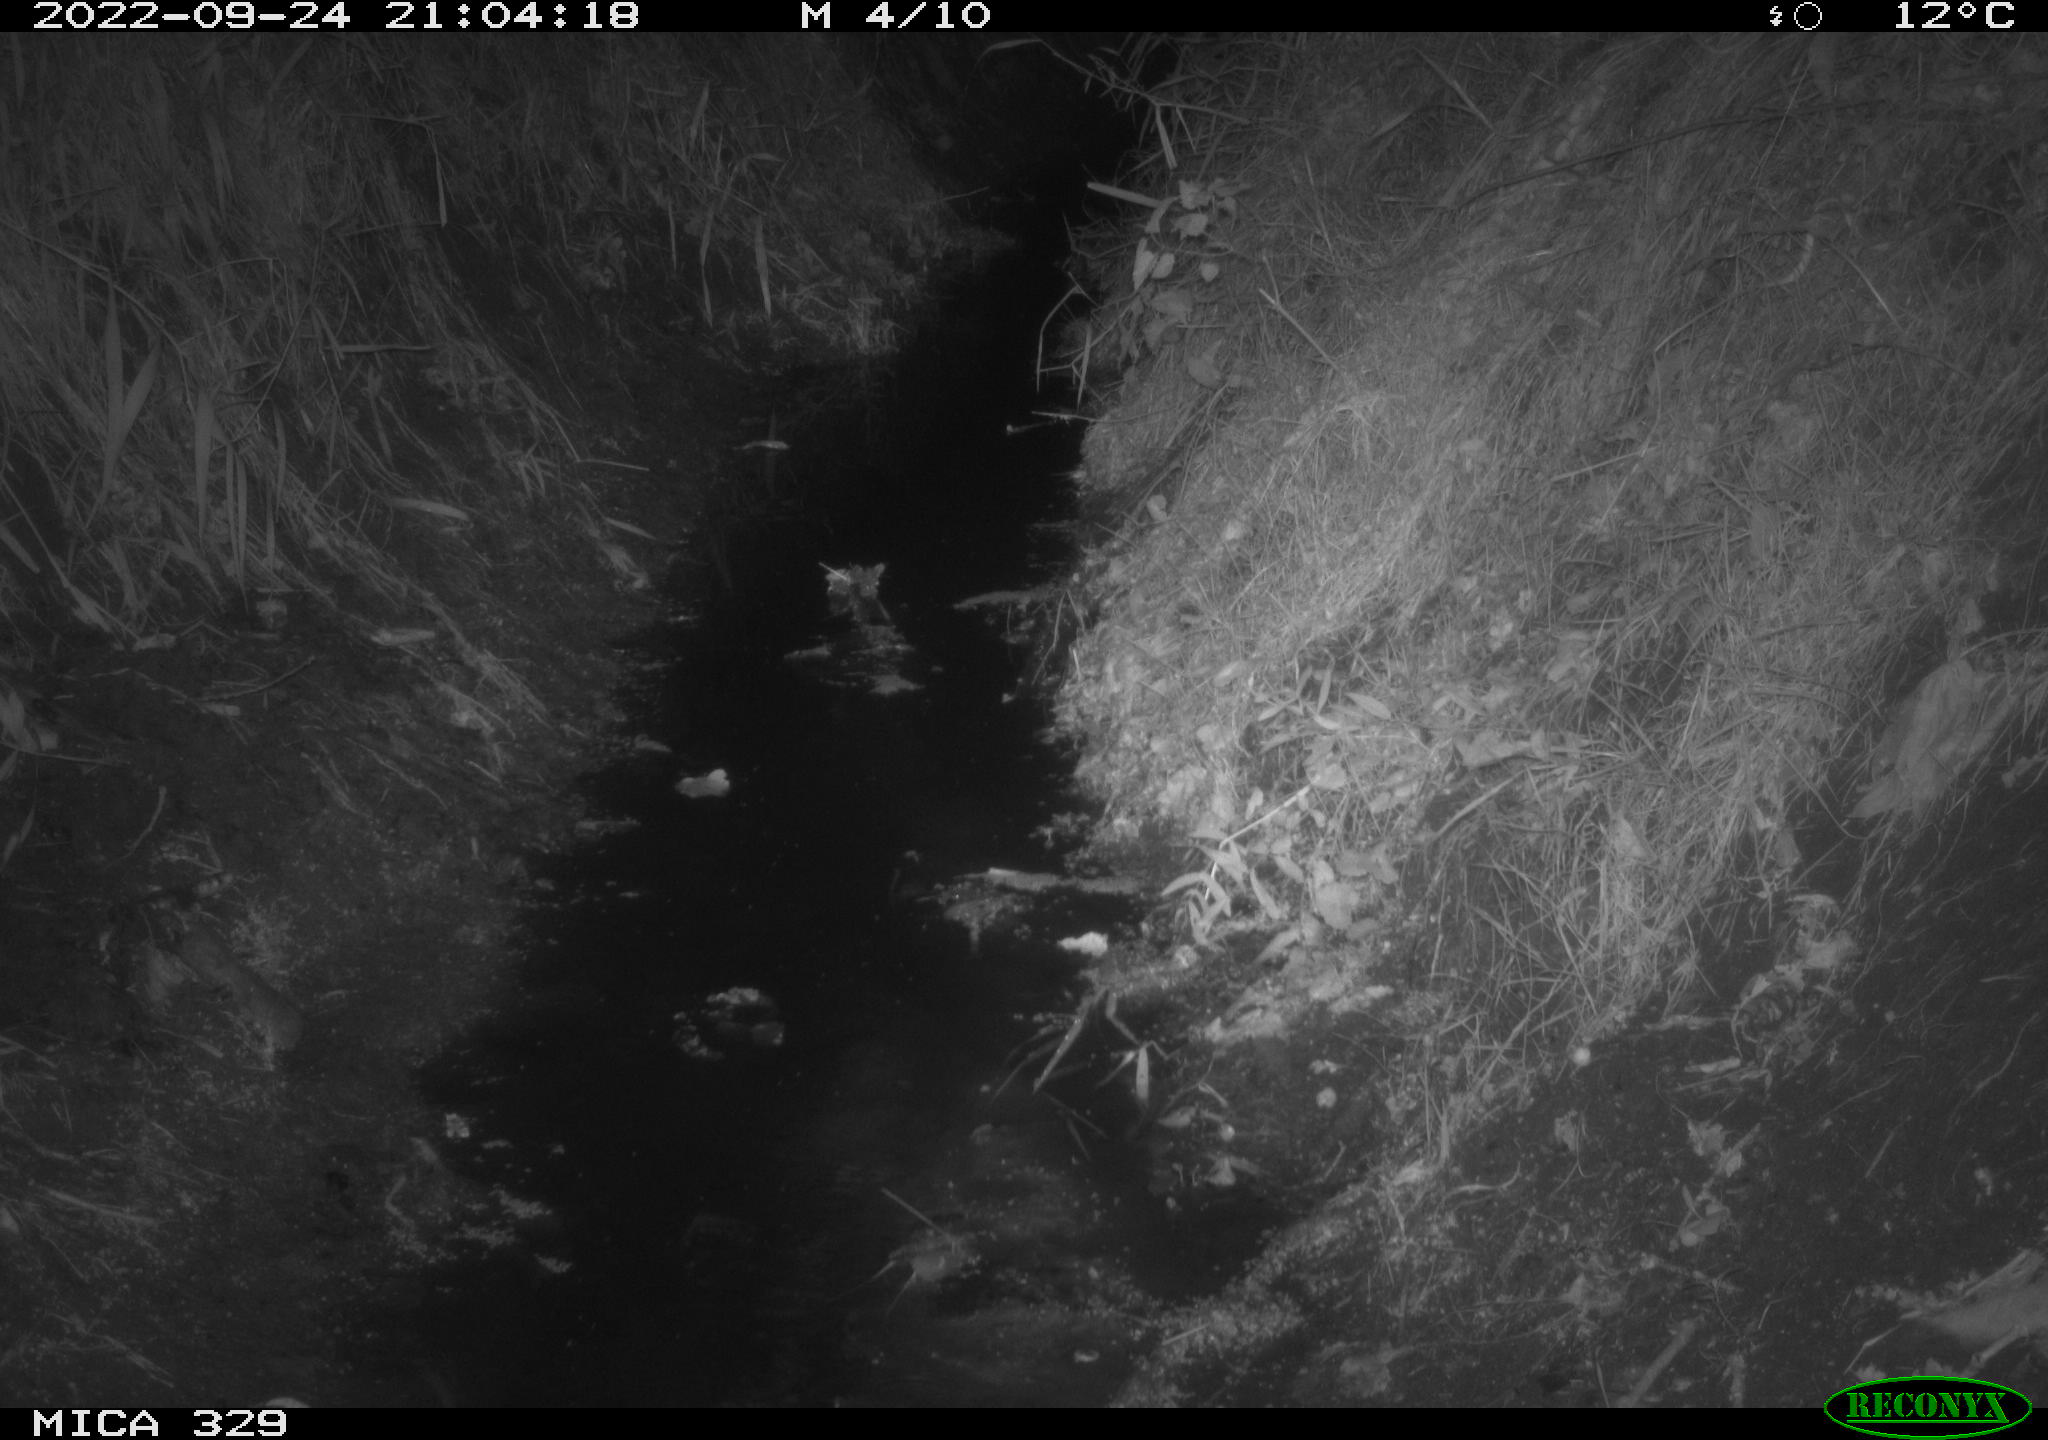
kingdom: Animalia
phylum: Chordata
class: Mammalia
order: Rodentia
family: Muridae
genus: Rattus
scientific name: Rattus norvegicus
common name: Brown rat
